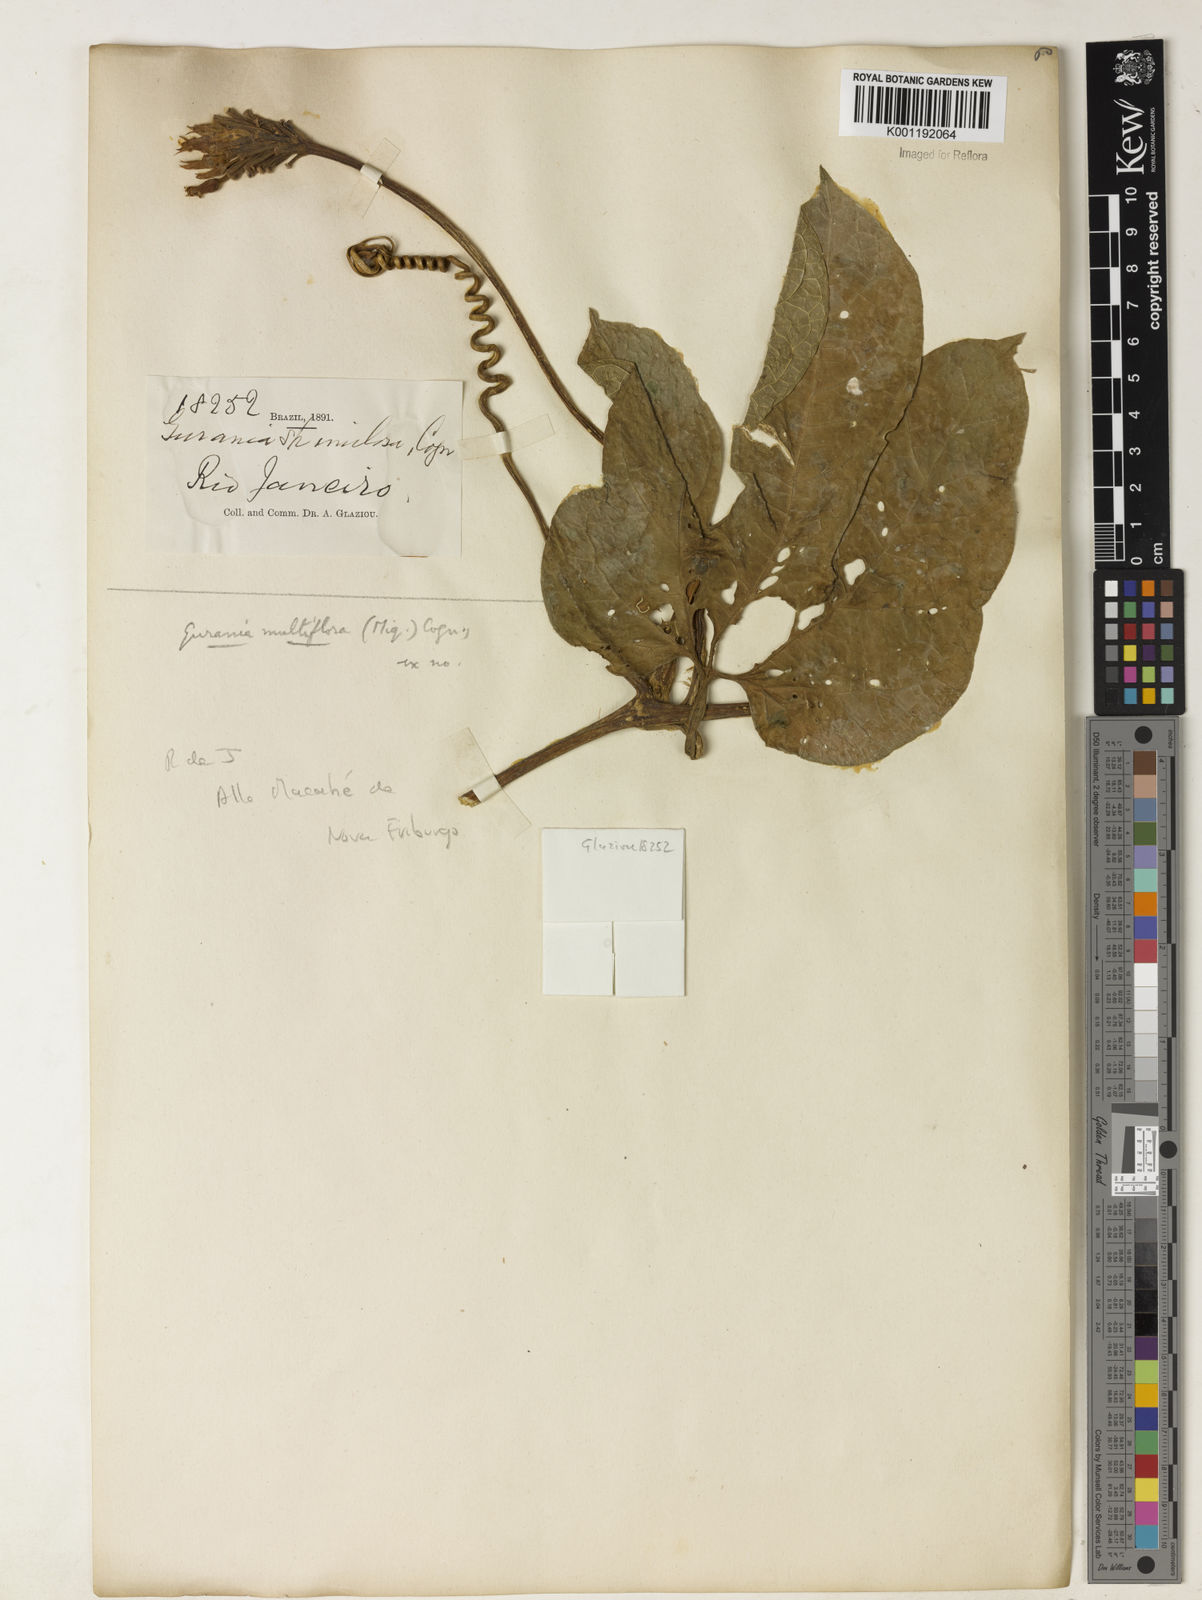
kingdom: Plantae
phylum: Tracheophyta
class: Magnoliopsida
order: Cucurbitales
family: Cucurbitaceae
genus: Gurania
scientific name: Gurania lobata
